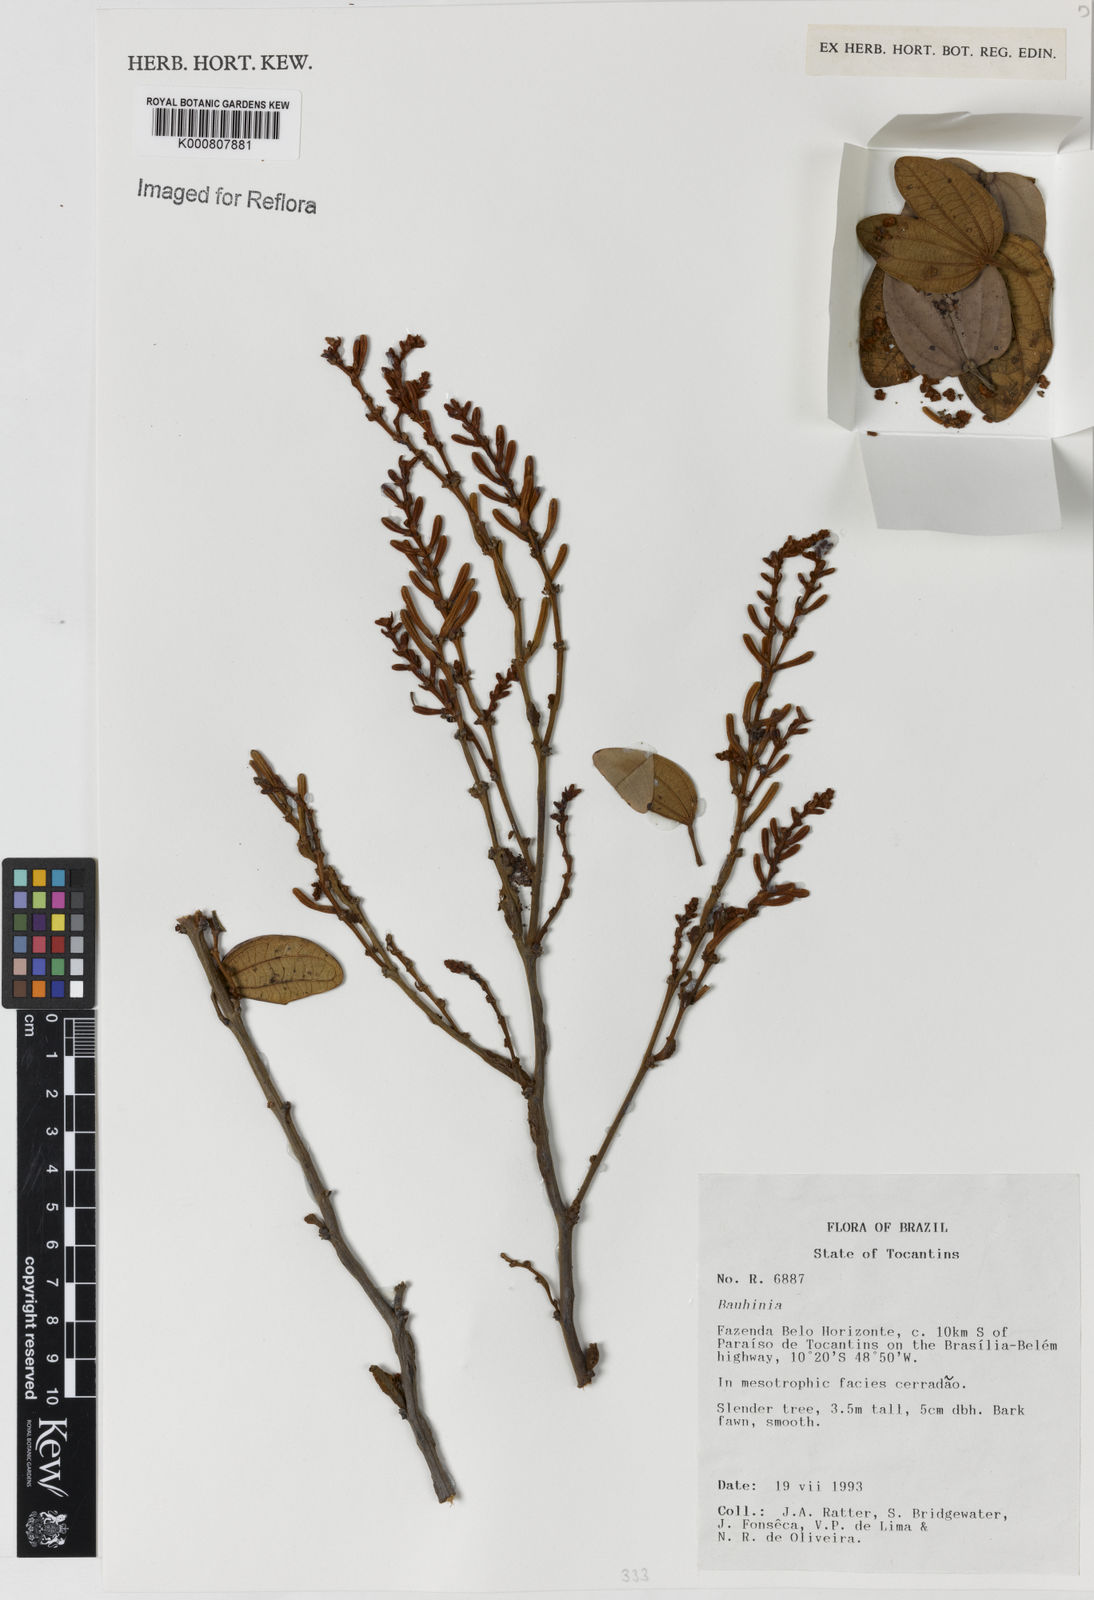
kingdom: Plantae
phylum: Tracheophyta
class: Magnoliopsida
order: Fabales
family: Fabaceae
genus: Bauhinia
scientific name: Bauhinia
